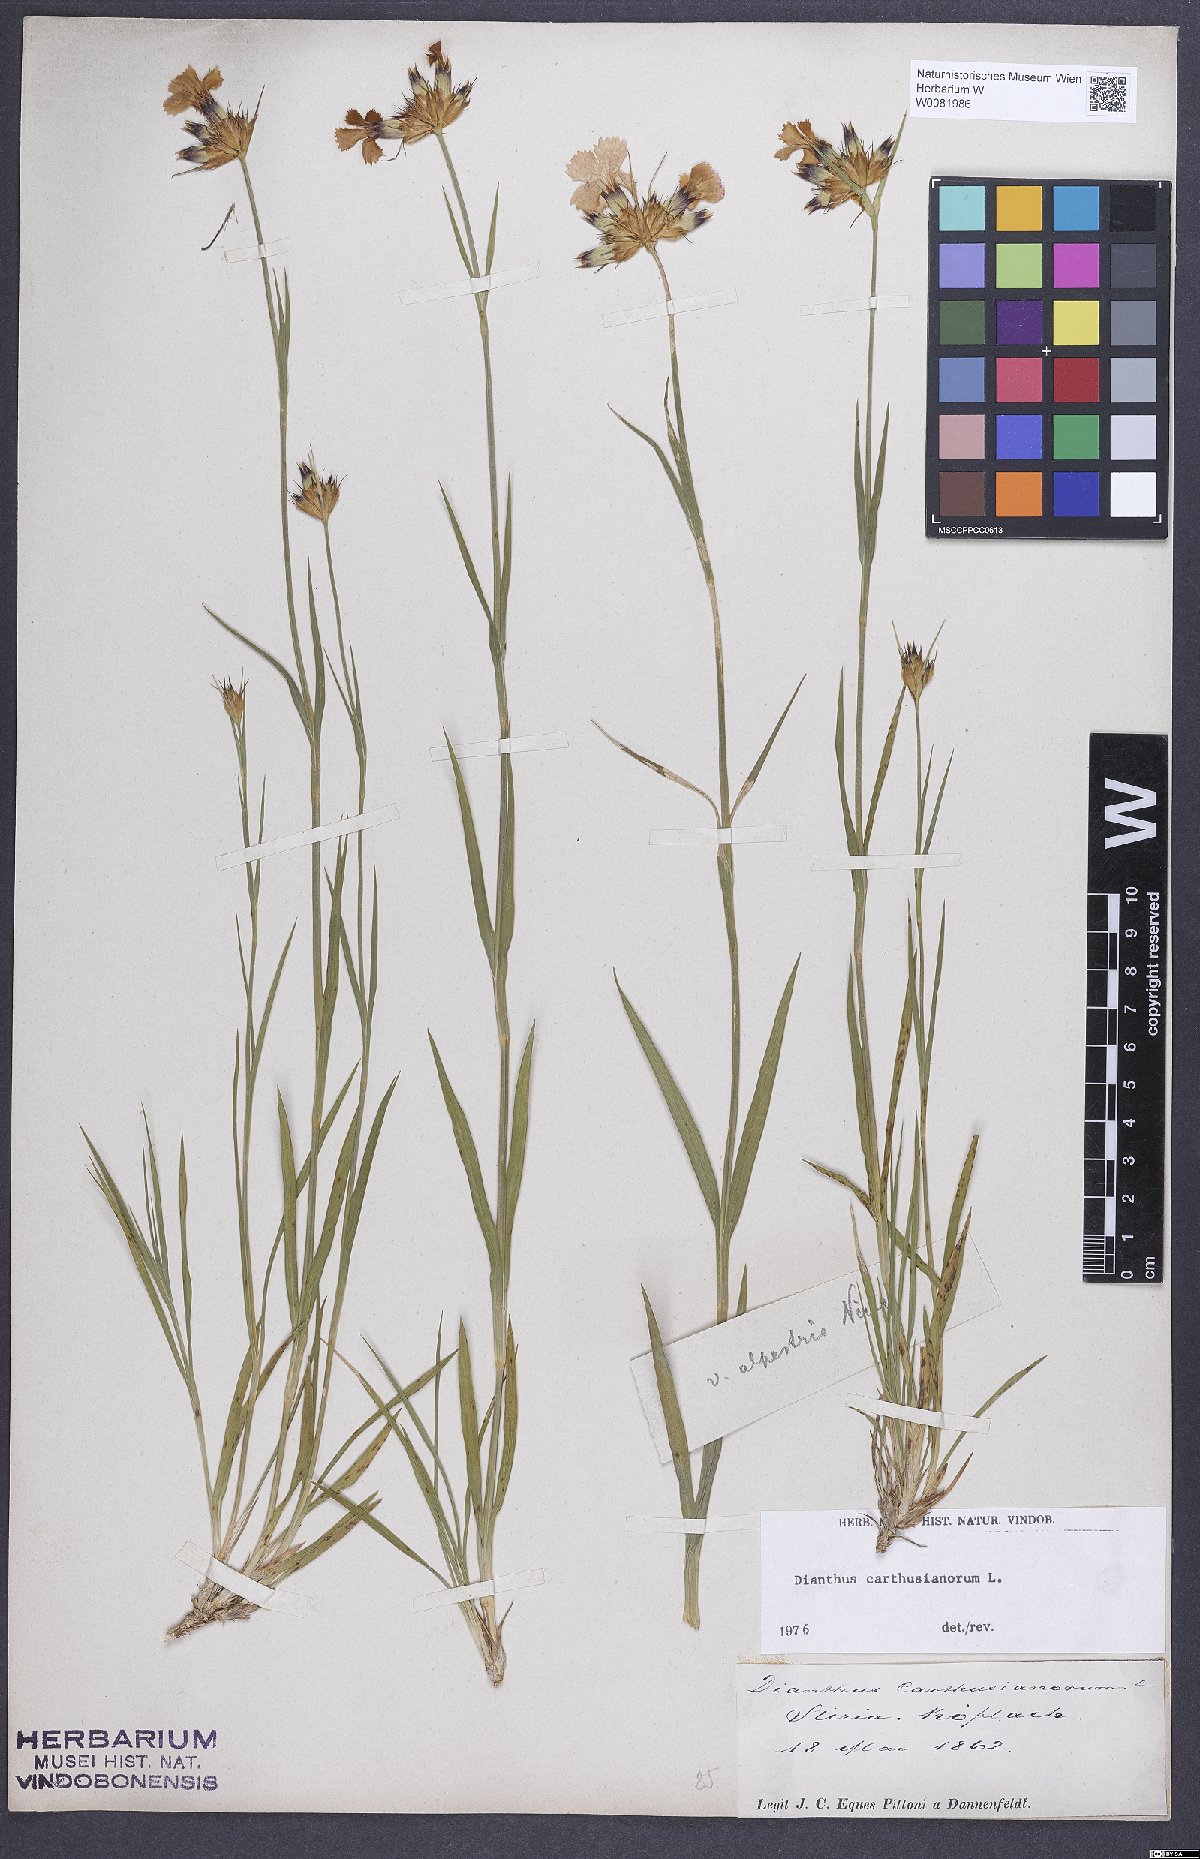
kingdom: Plantae
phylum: Tracheophyta
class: Magnoliopsida
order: Caryophyllales
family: Caryophyllaceae
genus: Dianthus
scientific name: Dianthus carthusianorum
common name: Carthusian pink
